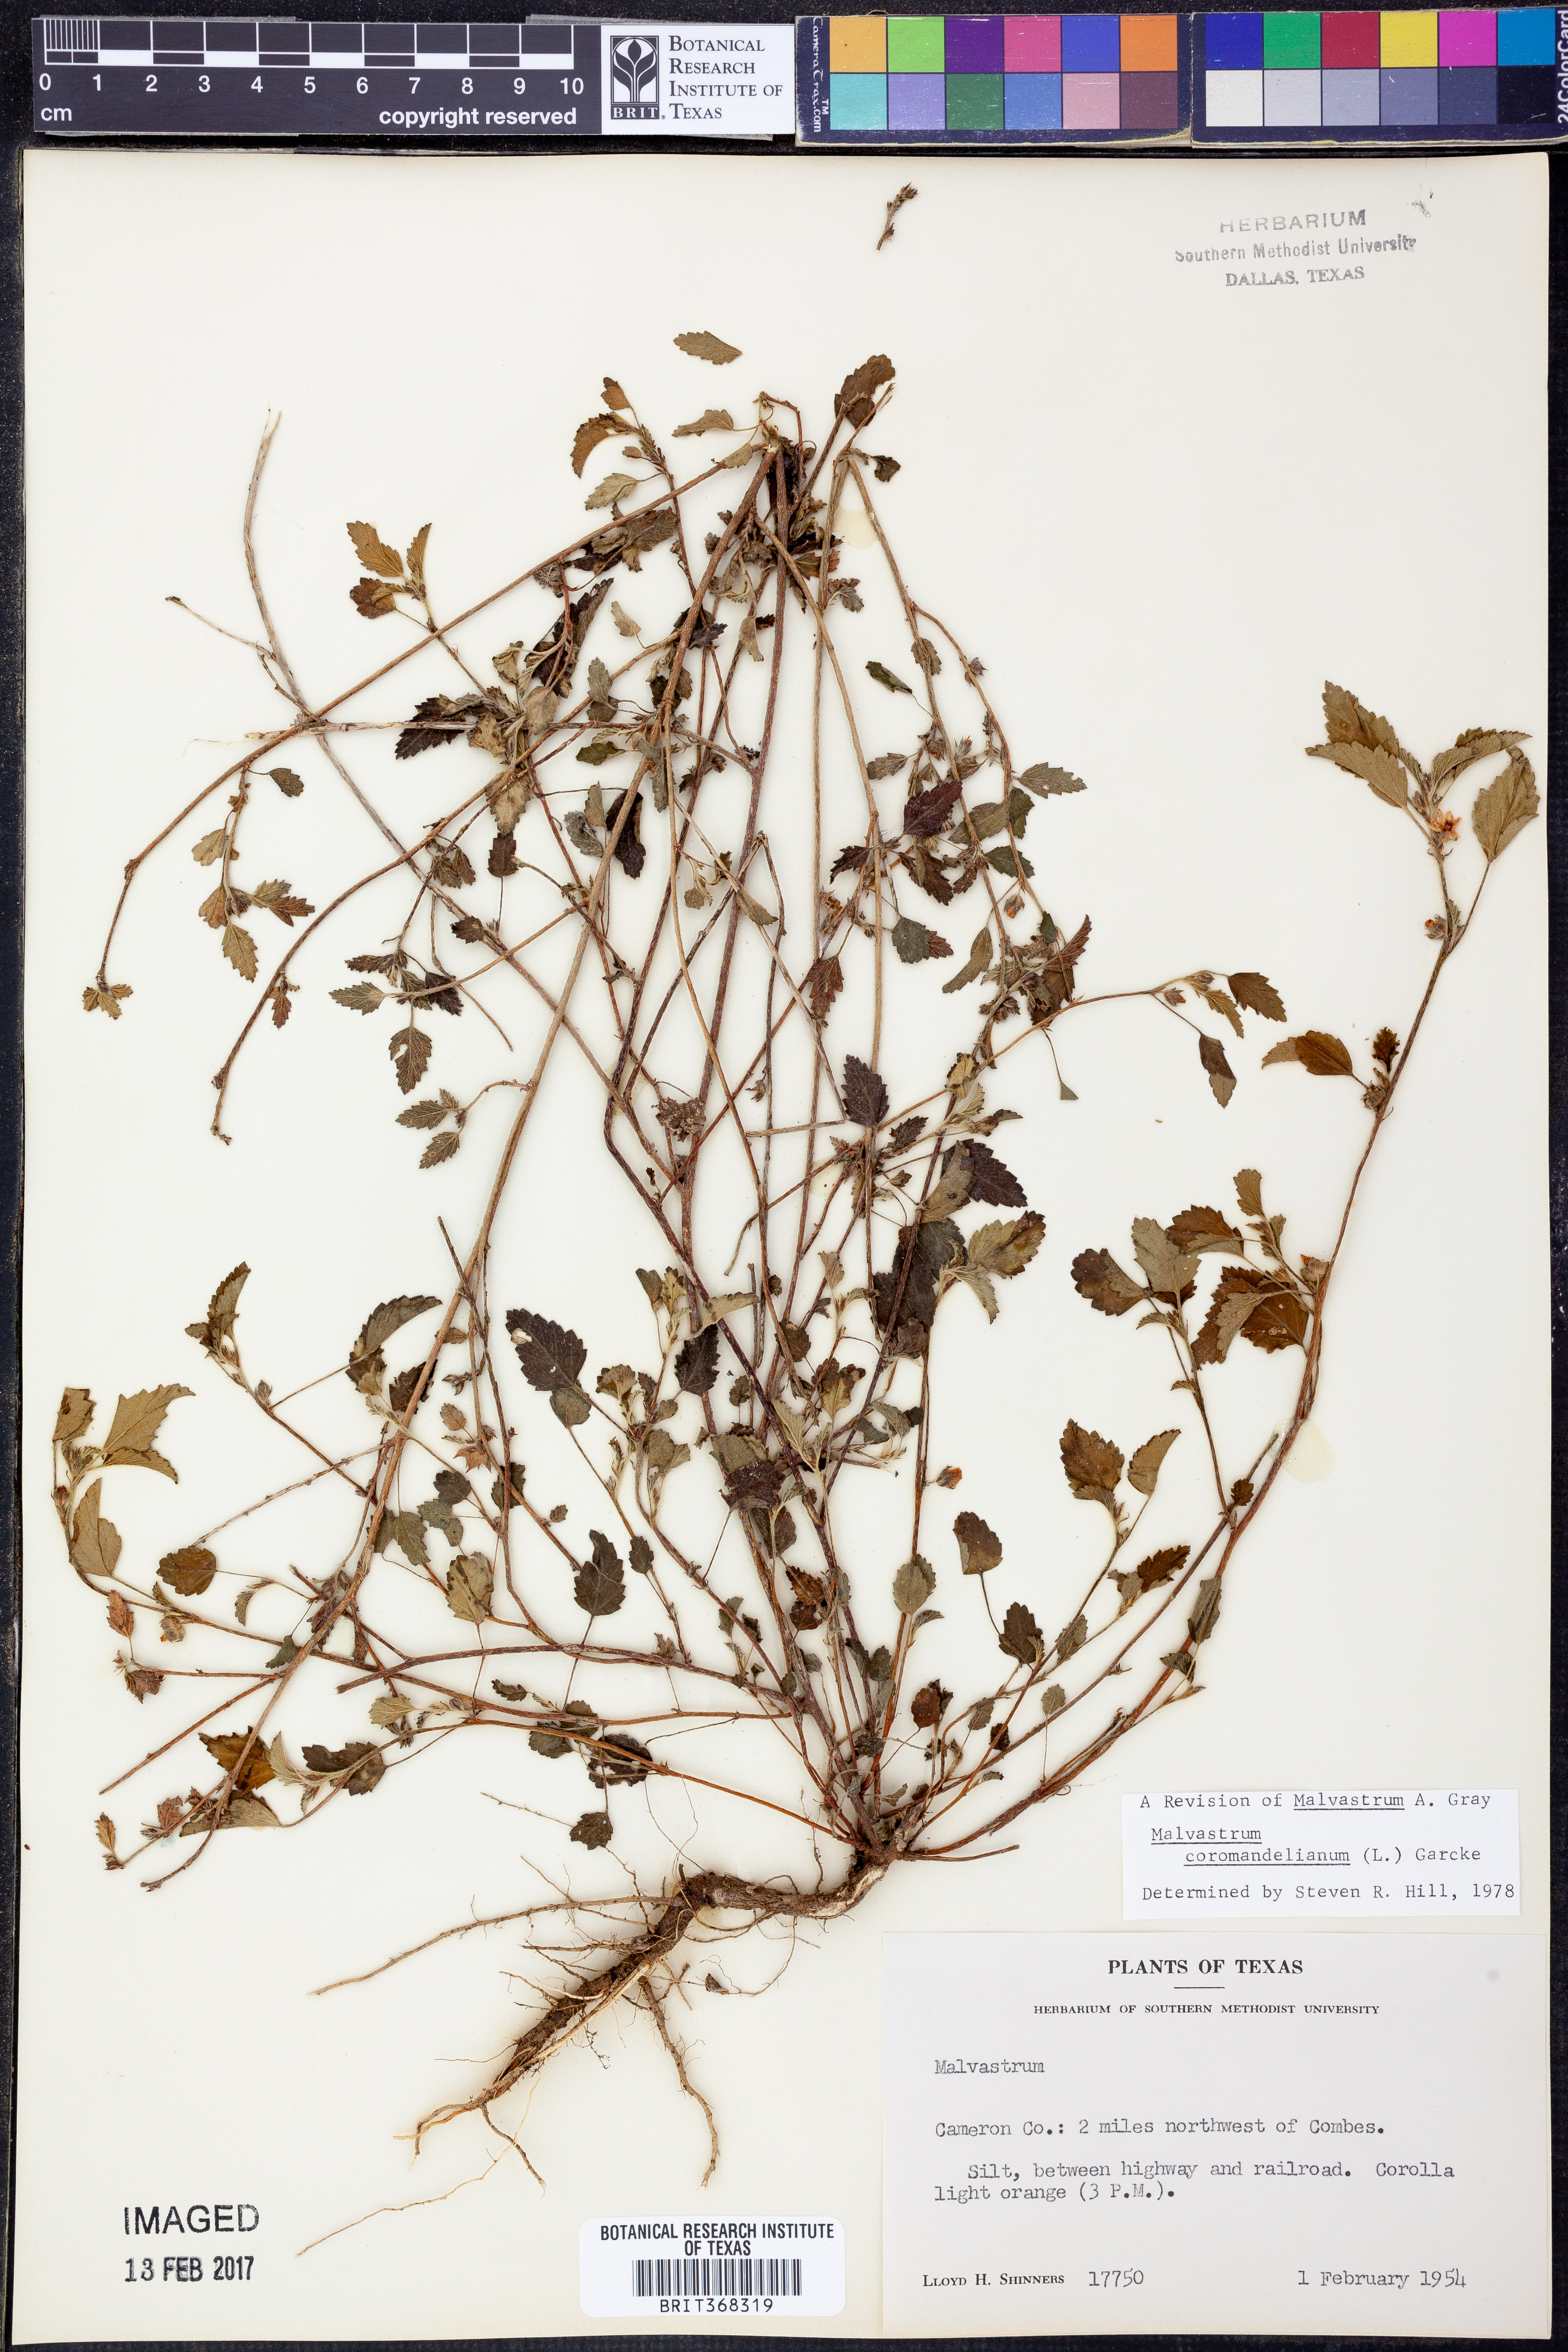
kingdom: Plantae
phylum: Tracheophyta
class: Magnoliopsida
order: Malvales
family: Malvaceae
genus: Malvastrum
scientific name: Malvastrum coromandelianum
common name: Threelobe false mallow
